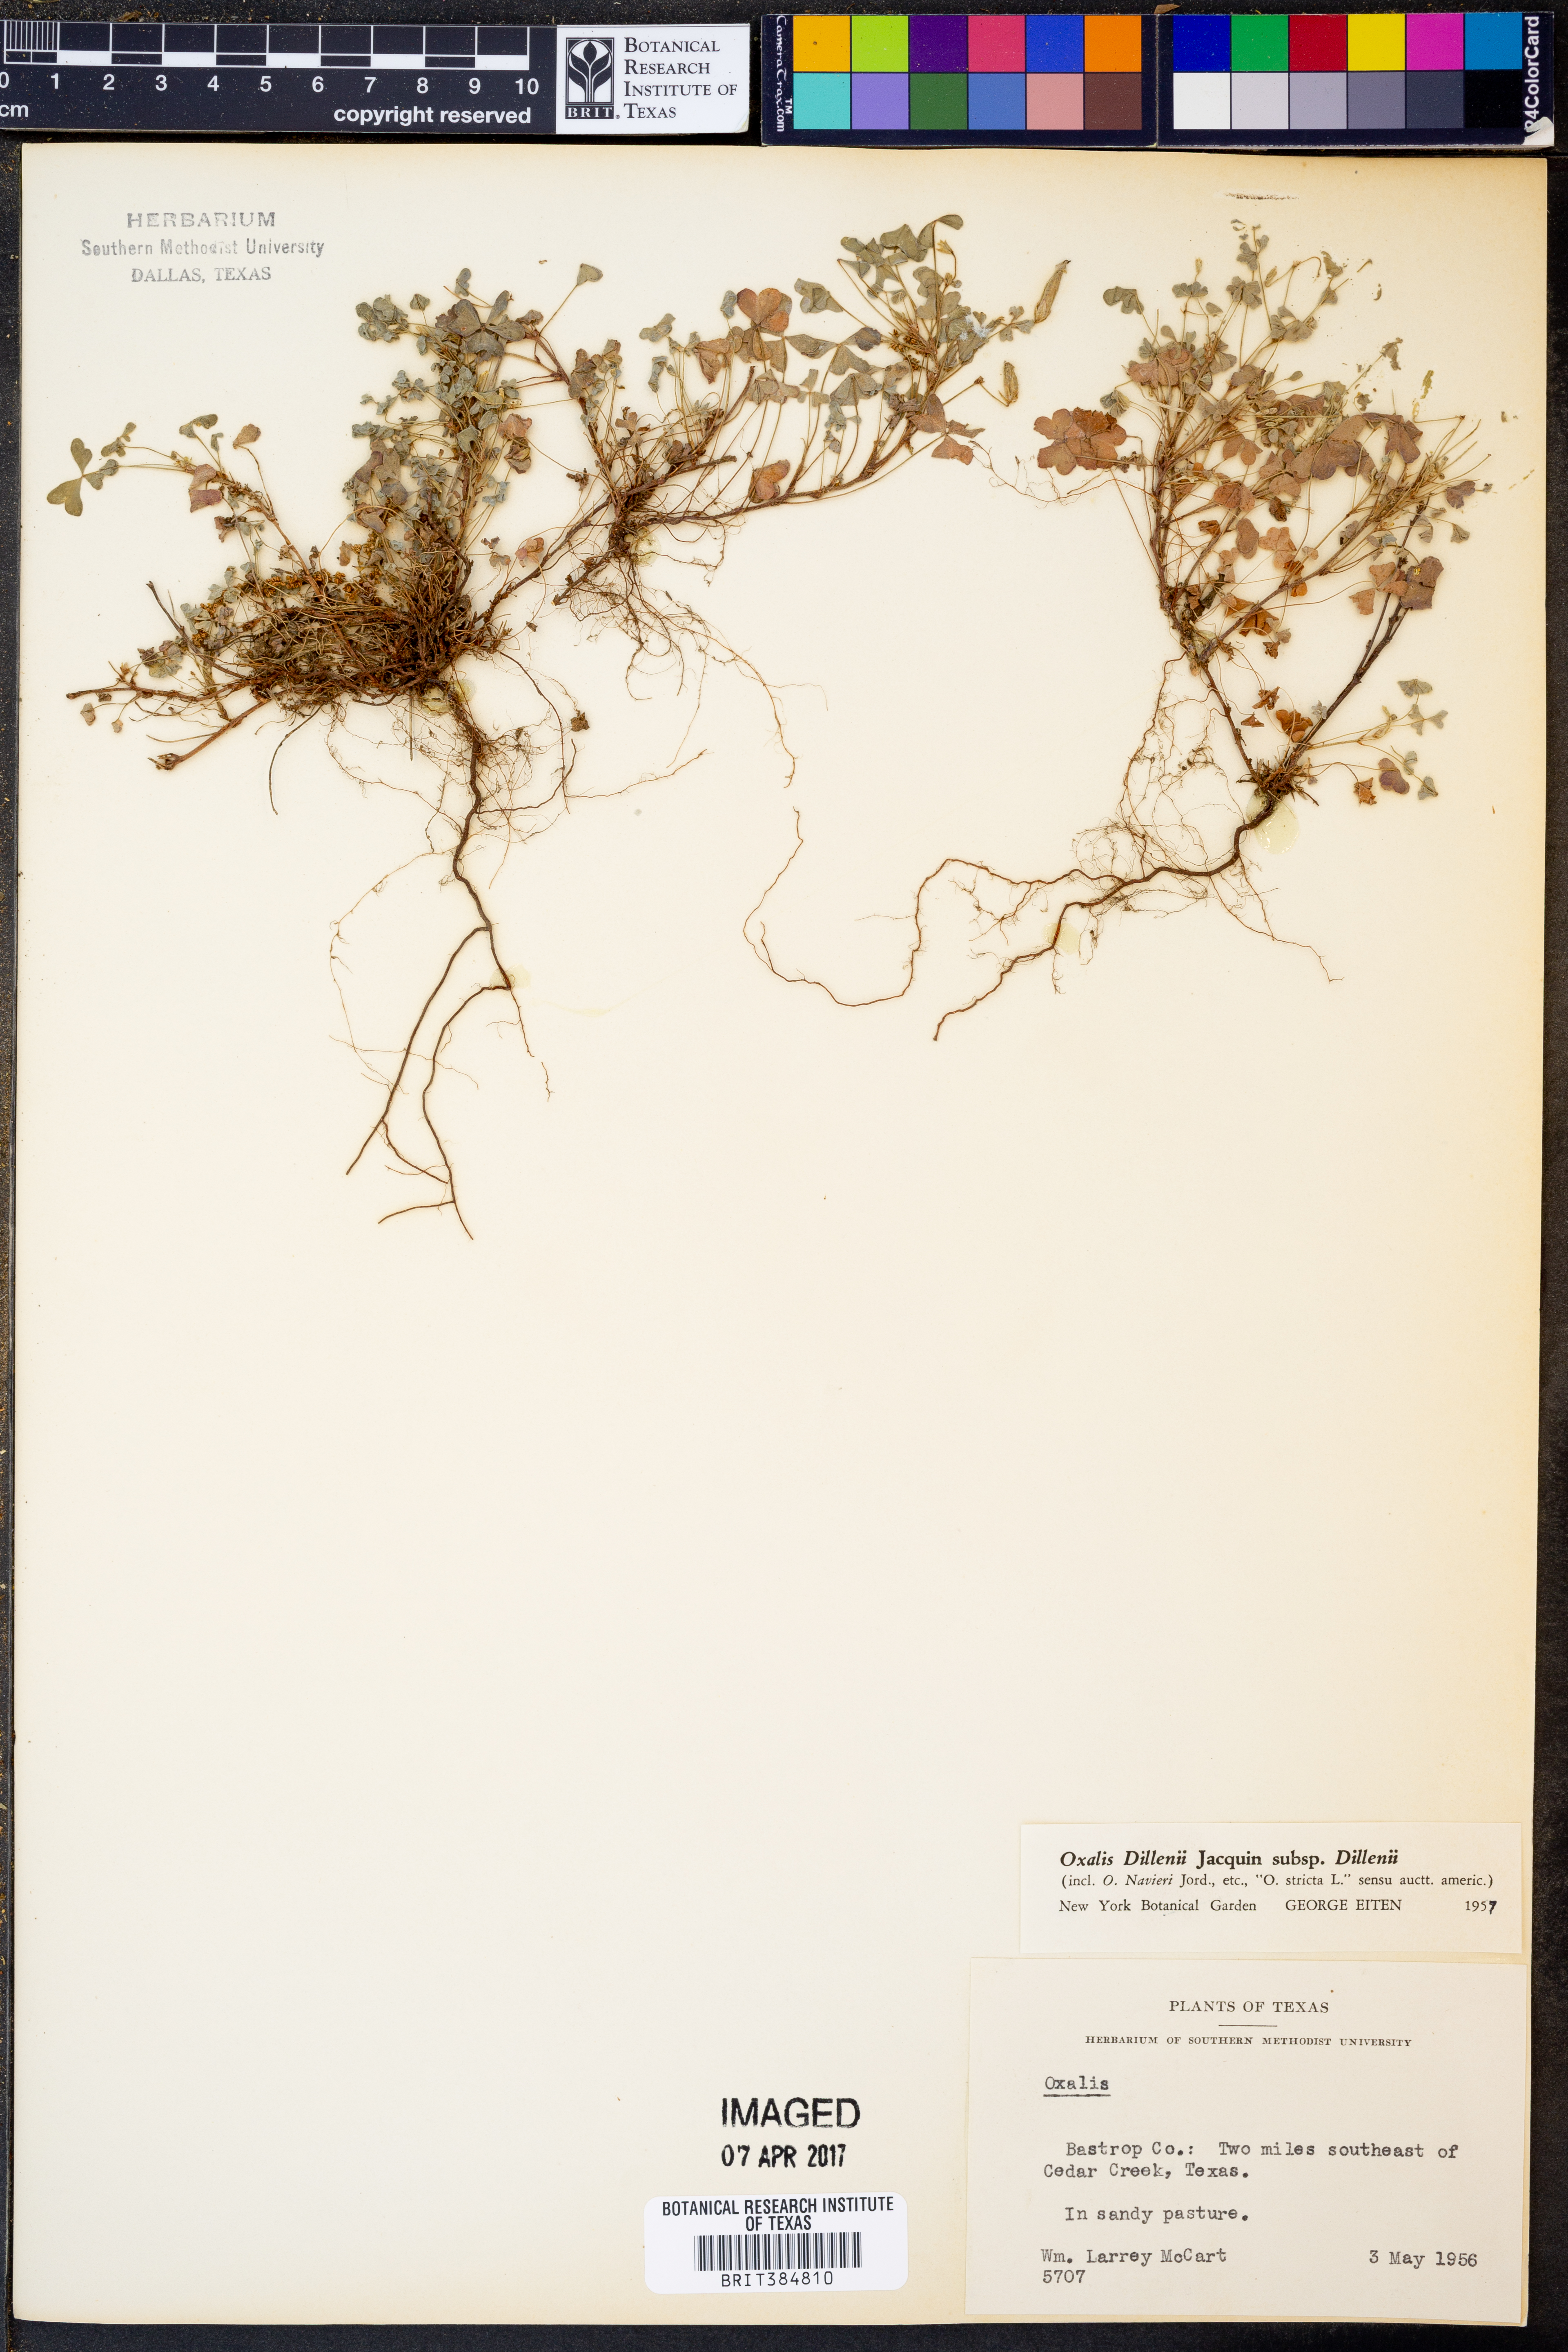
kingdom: Plantae
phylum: Tracheophyta
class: Magnoliopsida
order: Oxalidales
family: Oxalidaceae
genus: Oxalis
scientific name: Oxalis dillenii
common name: Sussex yellow-sorrel
